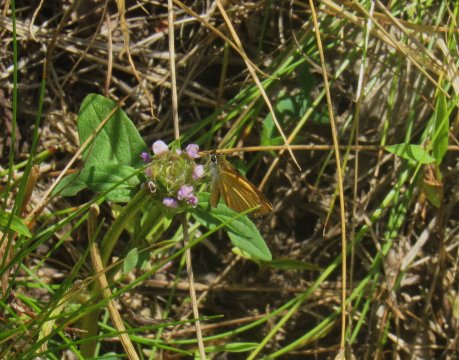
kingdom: Animalia
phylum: Arthropoda
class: Insecta
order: Lepidoptera
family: Hesperiidae
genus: Ancyloxypha
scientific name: Ancyloxypha numitor
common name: Least Skipper
